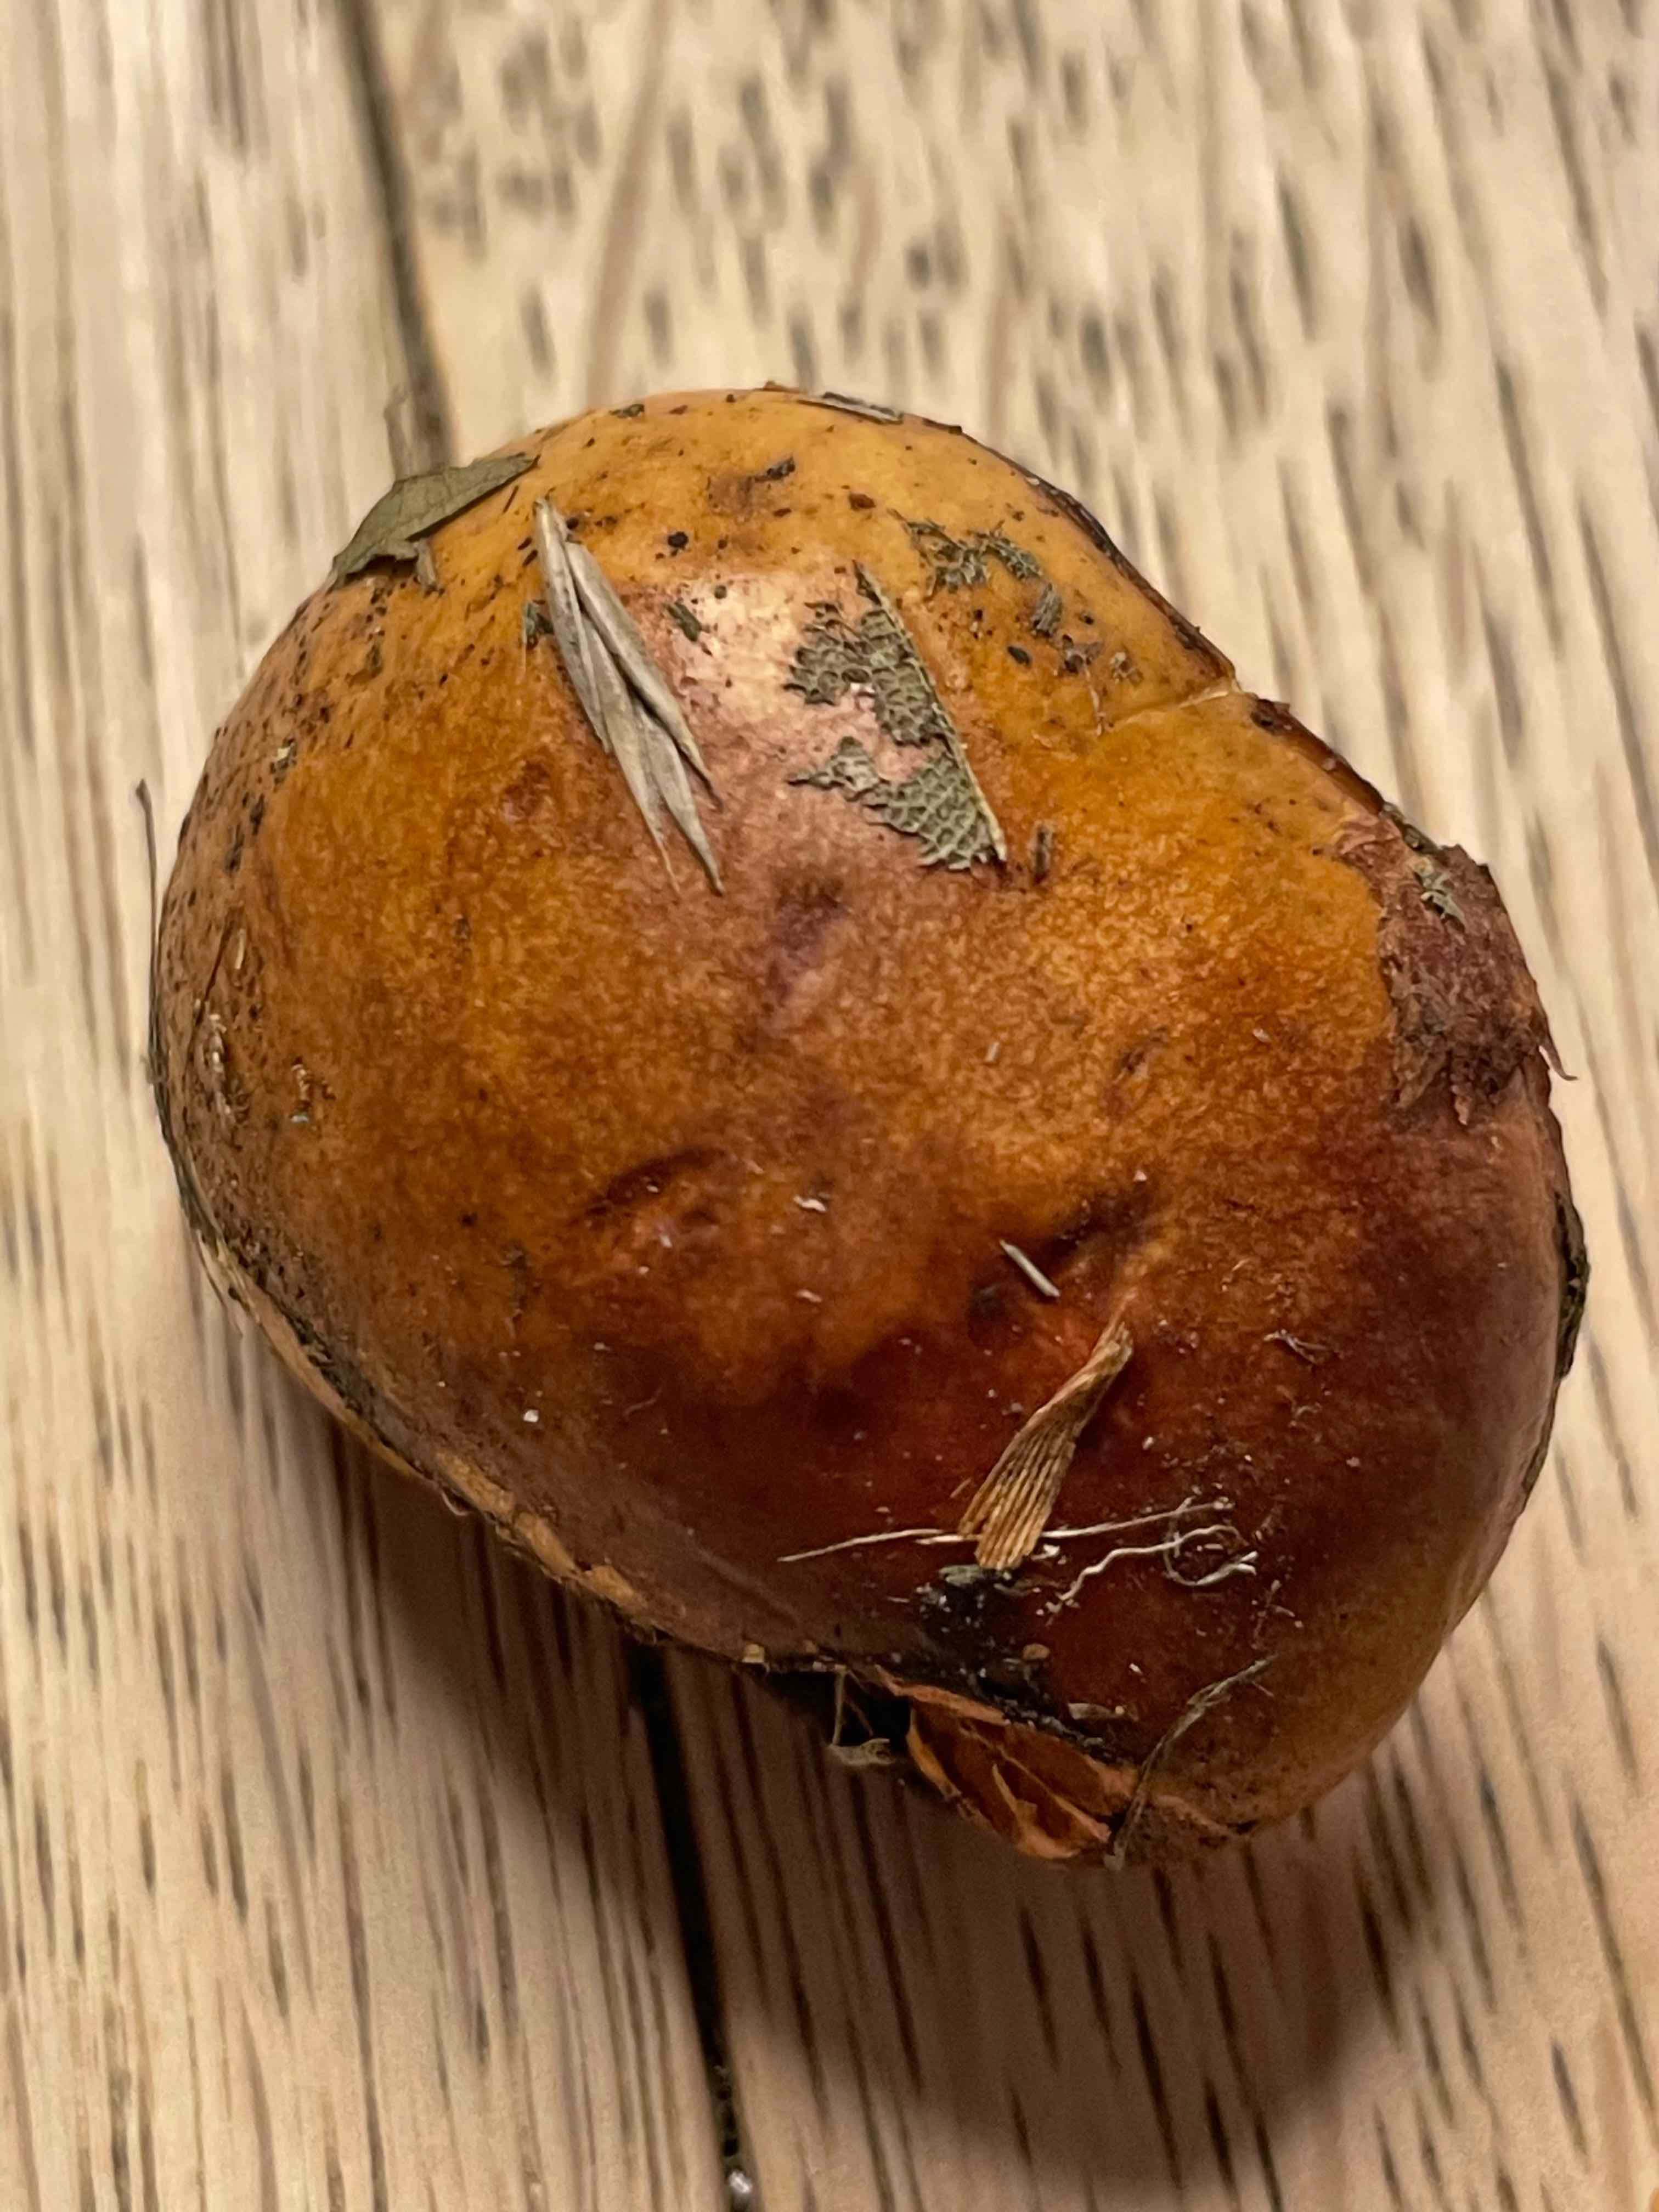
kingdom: Fungi
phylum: Basidiomycota
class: Agaricomycetes
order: Boletales
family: Suillaceae
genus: Suillus
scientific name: Suillus
